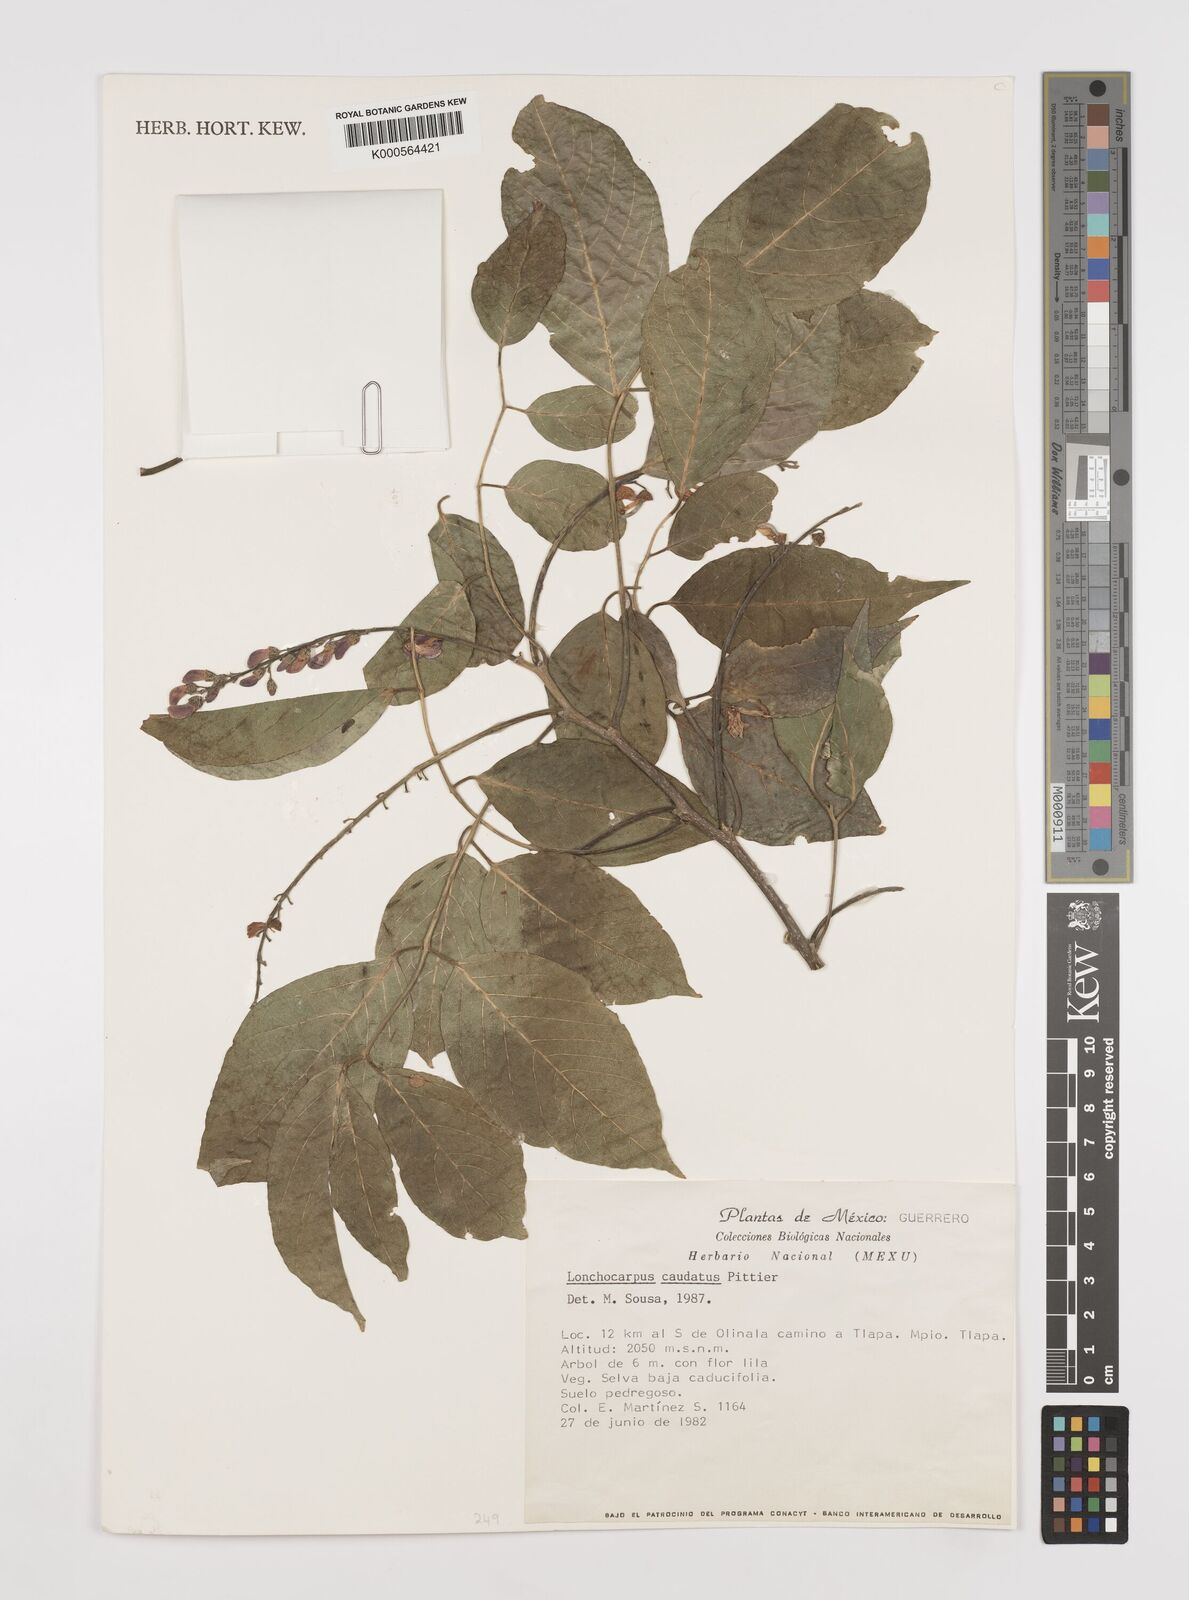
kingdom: Plantae
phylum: Tracheophyta
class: Magnoliopsida
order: Fabales
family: Fabaceae
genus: Lonchocarpus
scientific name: Lonchocarpus caudatus
